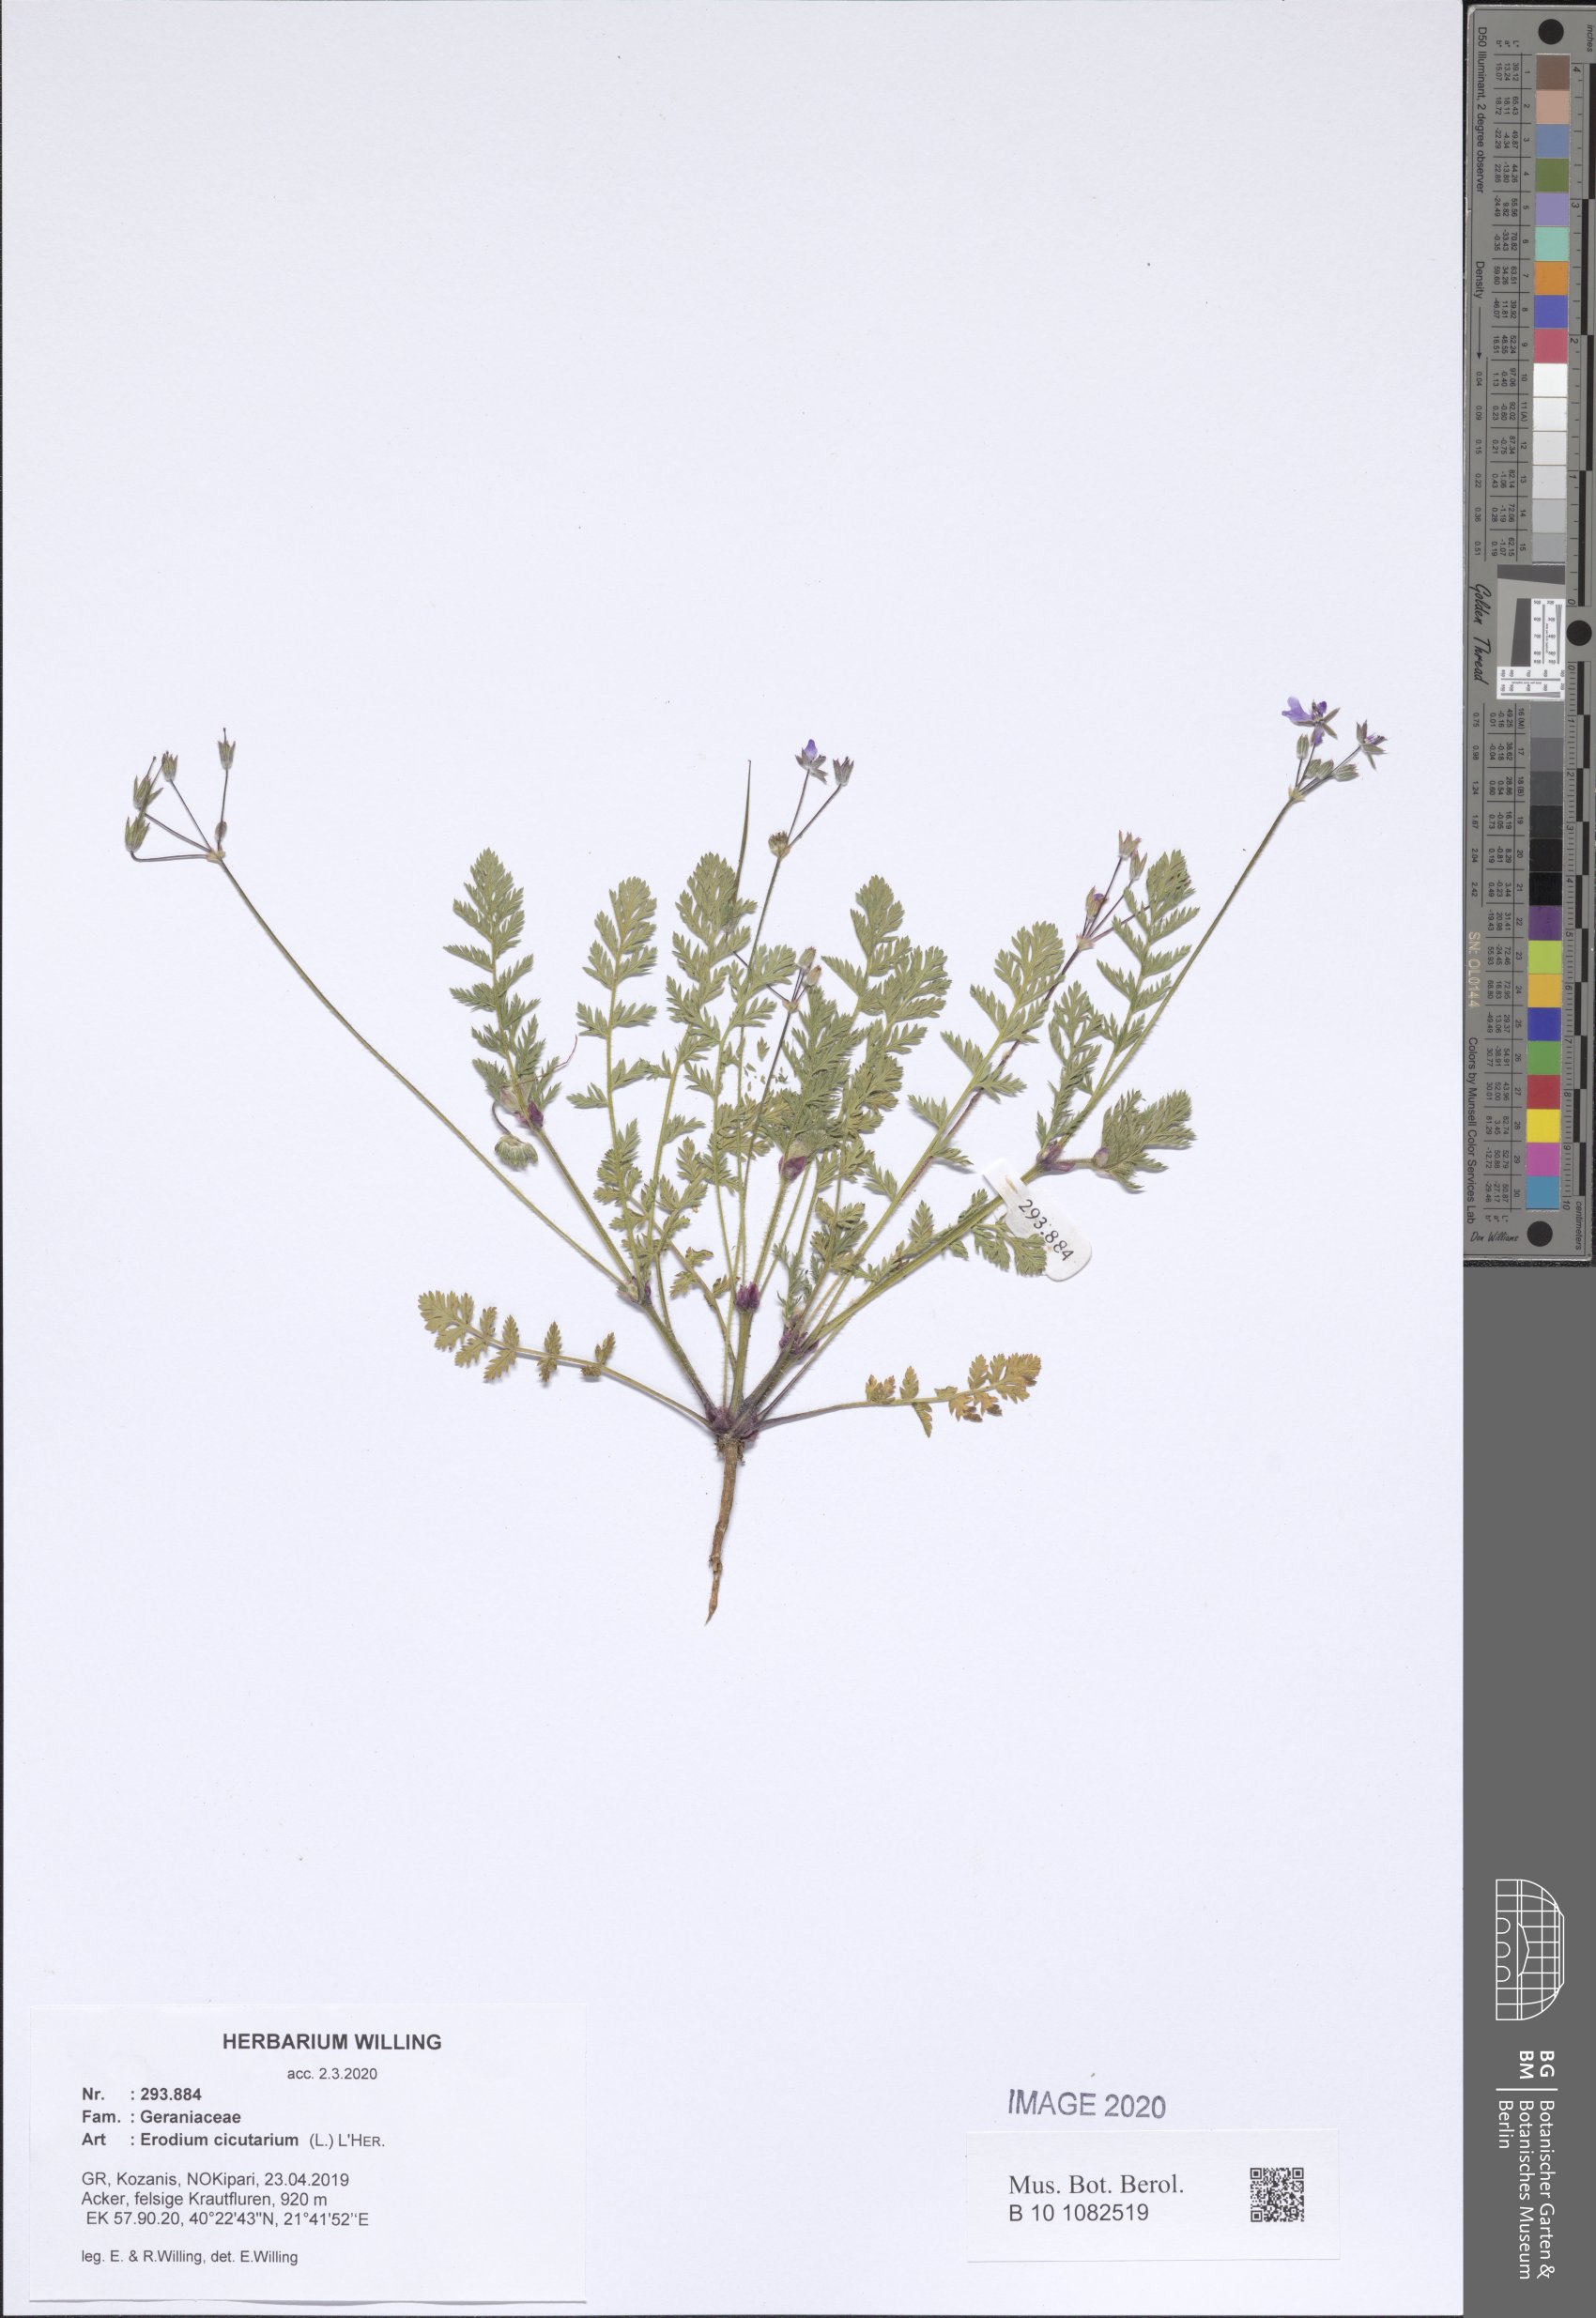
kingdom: Plantae
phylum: Tracheophyta
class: Magnoliopsida
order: Geraniales
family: Geraniaceae
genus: Erodium
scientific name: Erodium cicutarium
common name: Common stork's-bill
